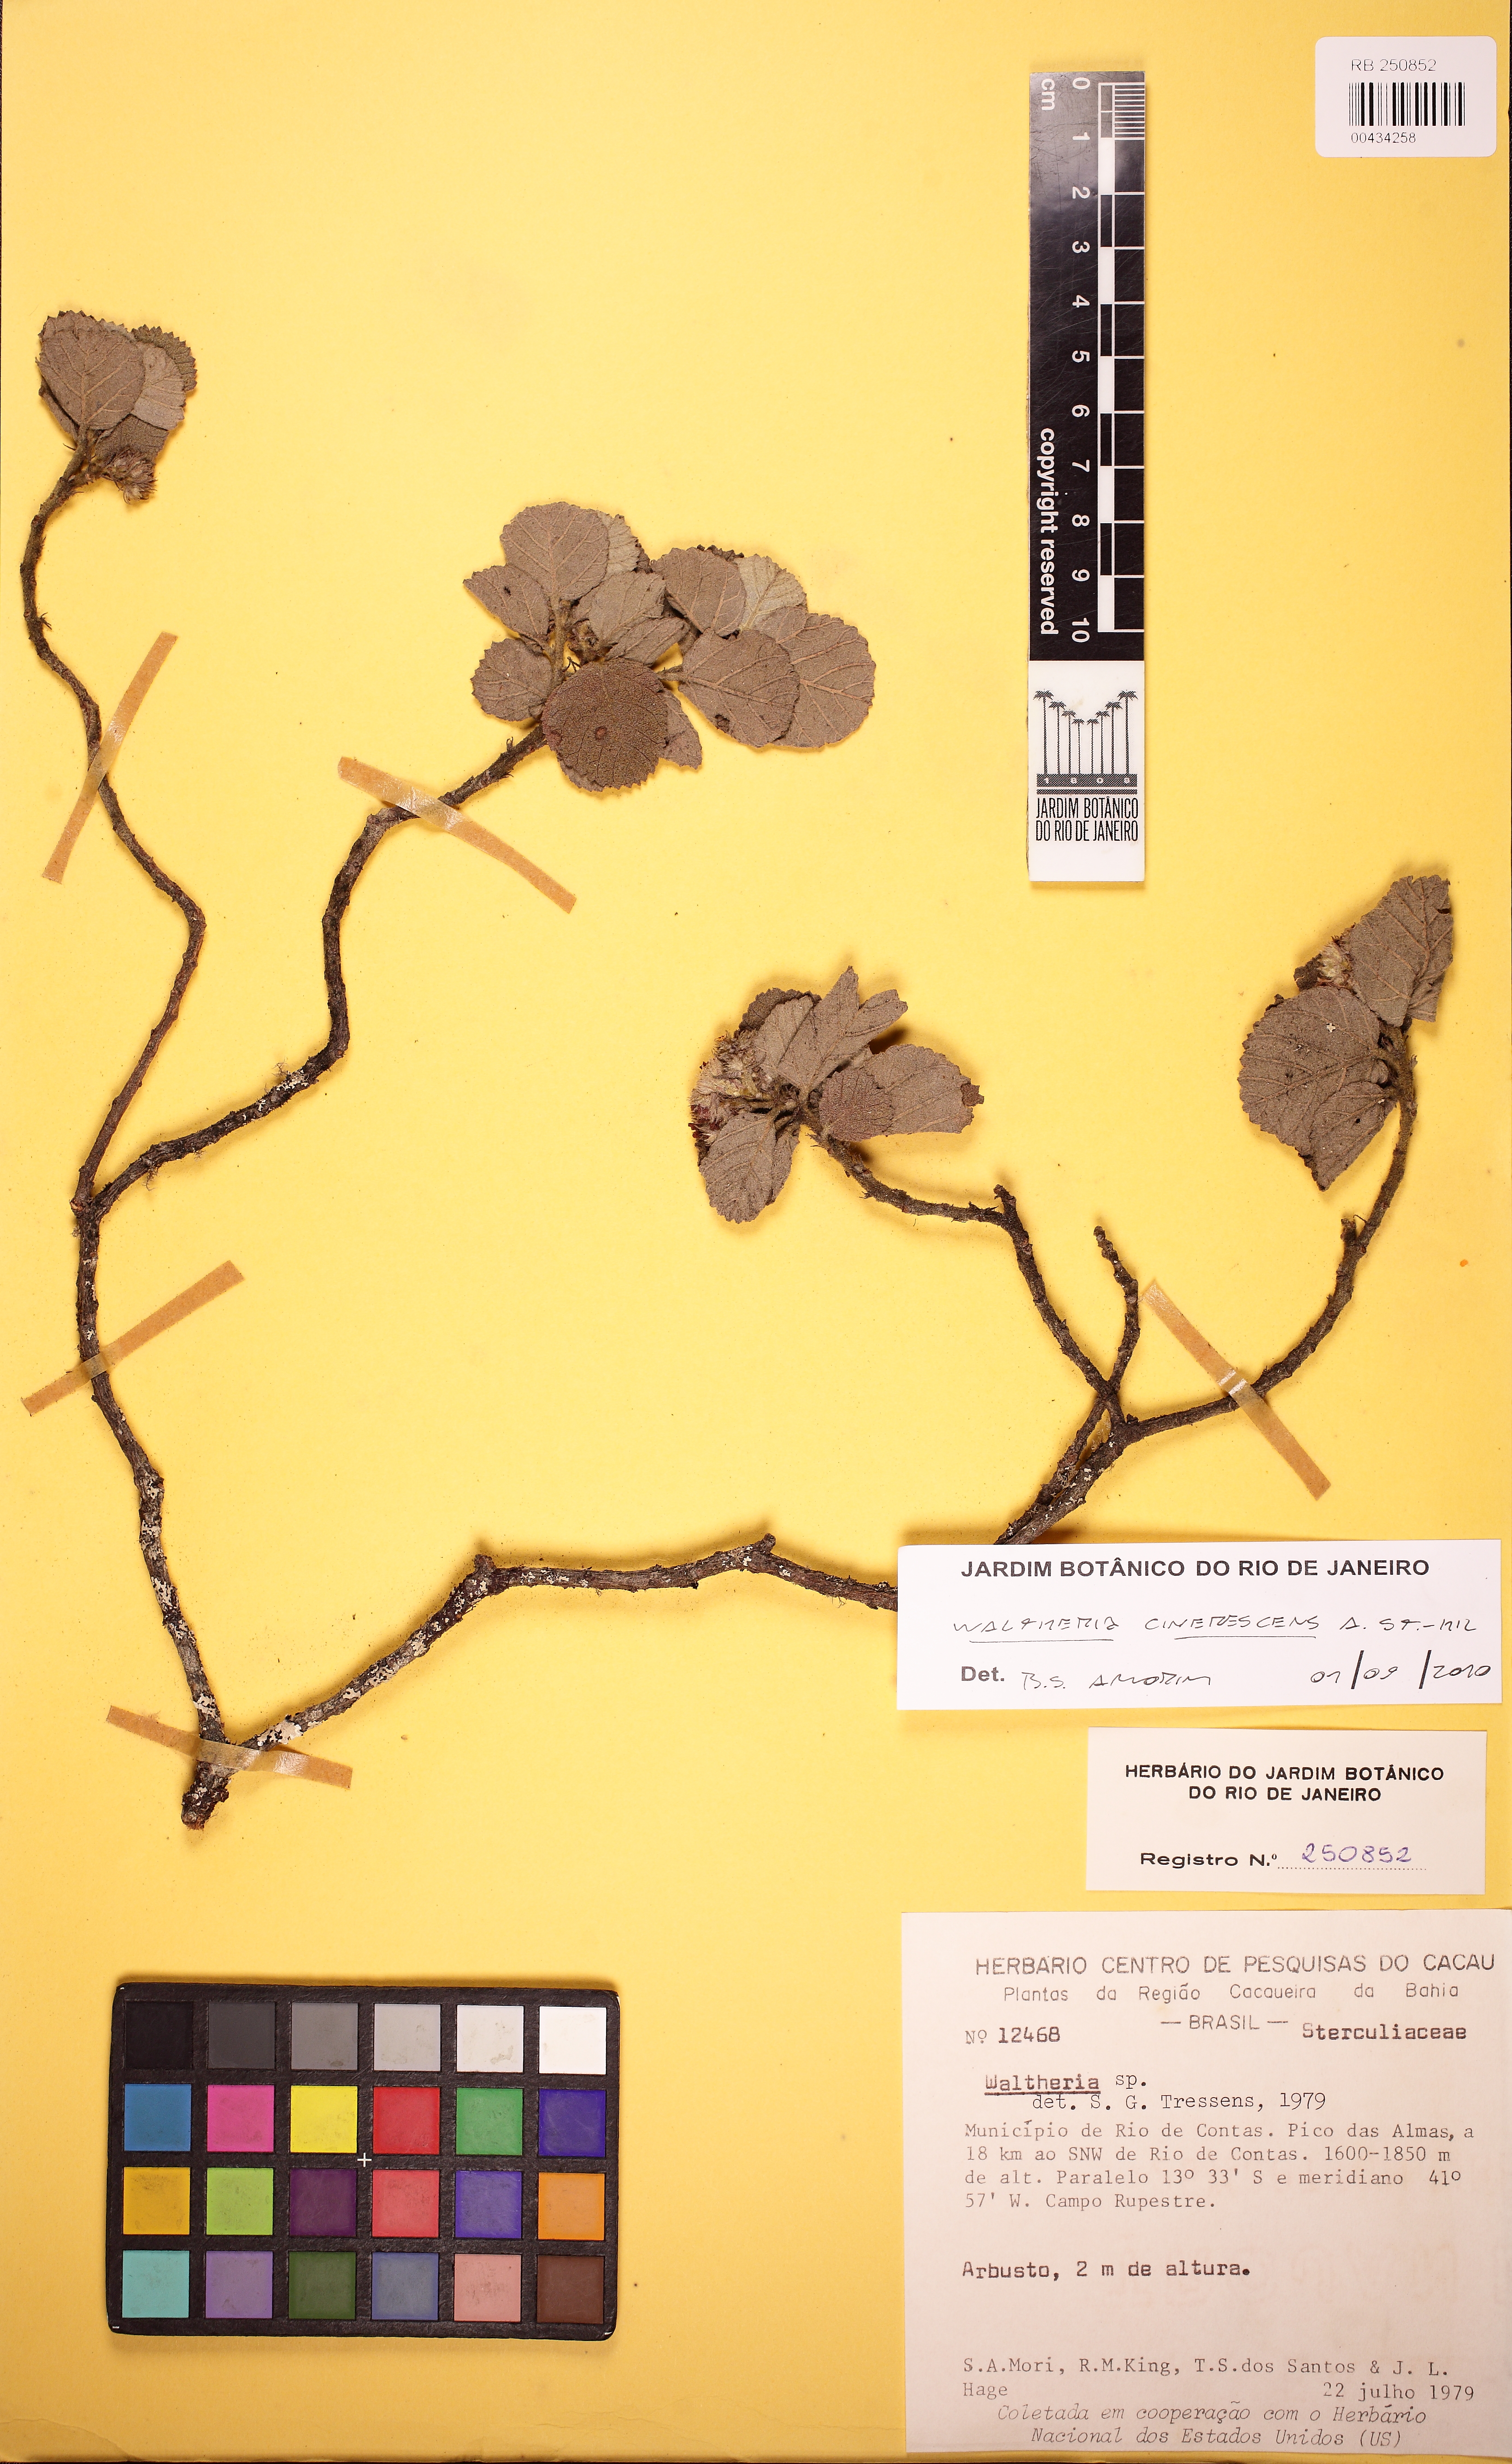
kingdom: Plantae
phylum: Tracheophyta
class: Magnoliopsida
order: Malvales
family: Malvaceae
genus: Waltheria
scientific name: Waltheria cinerascens
